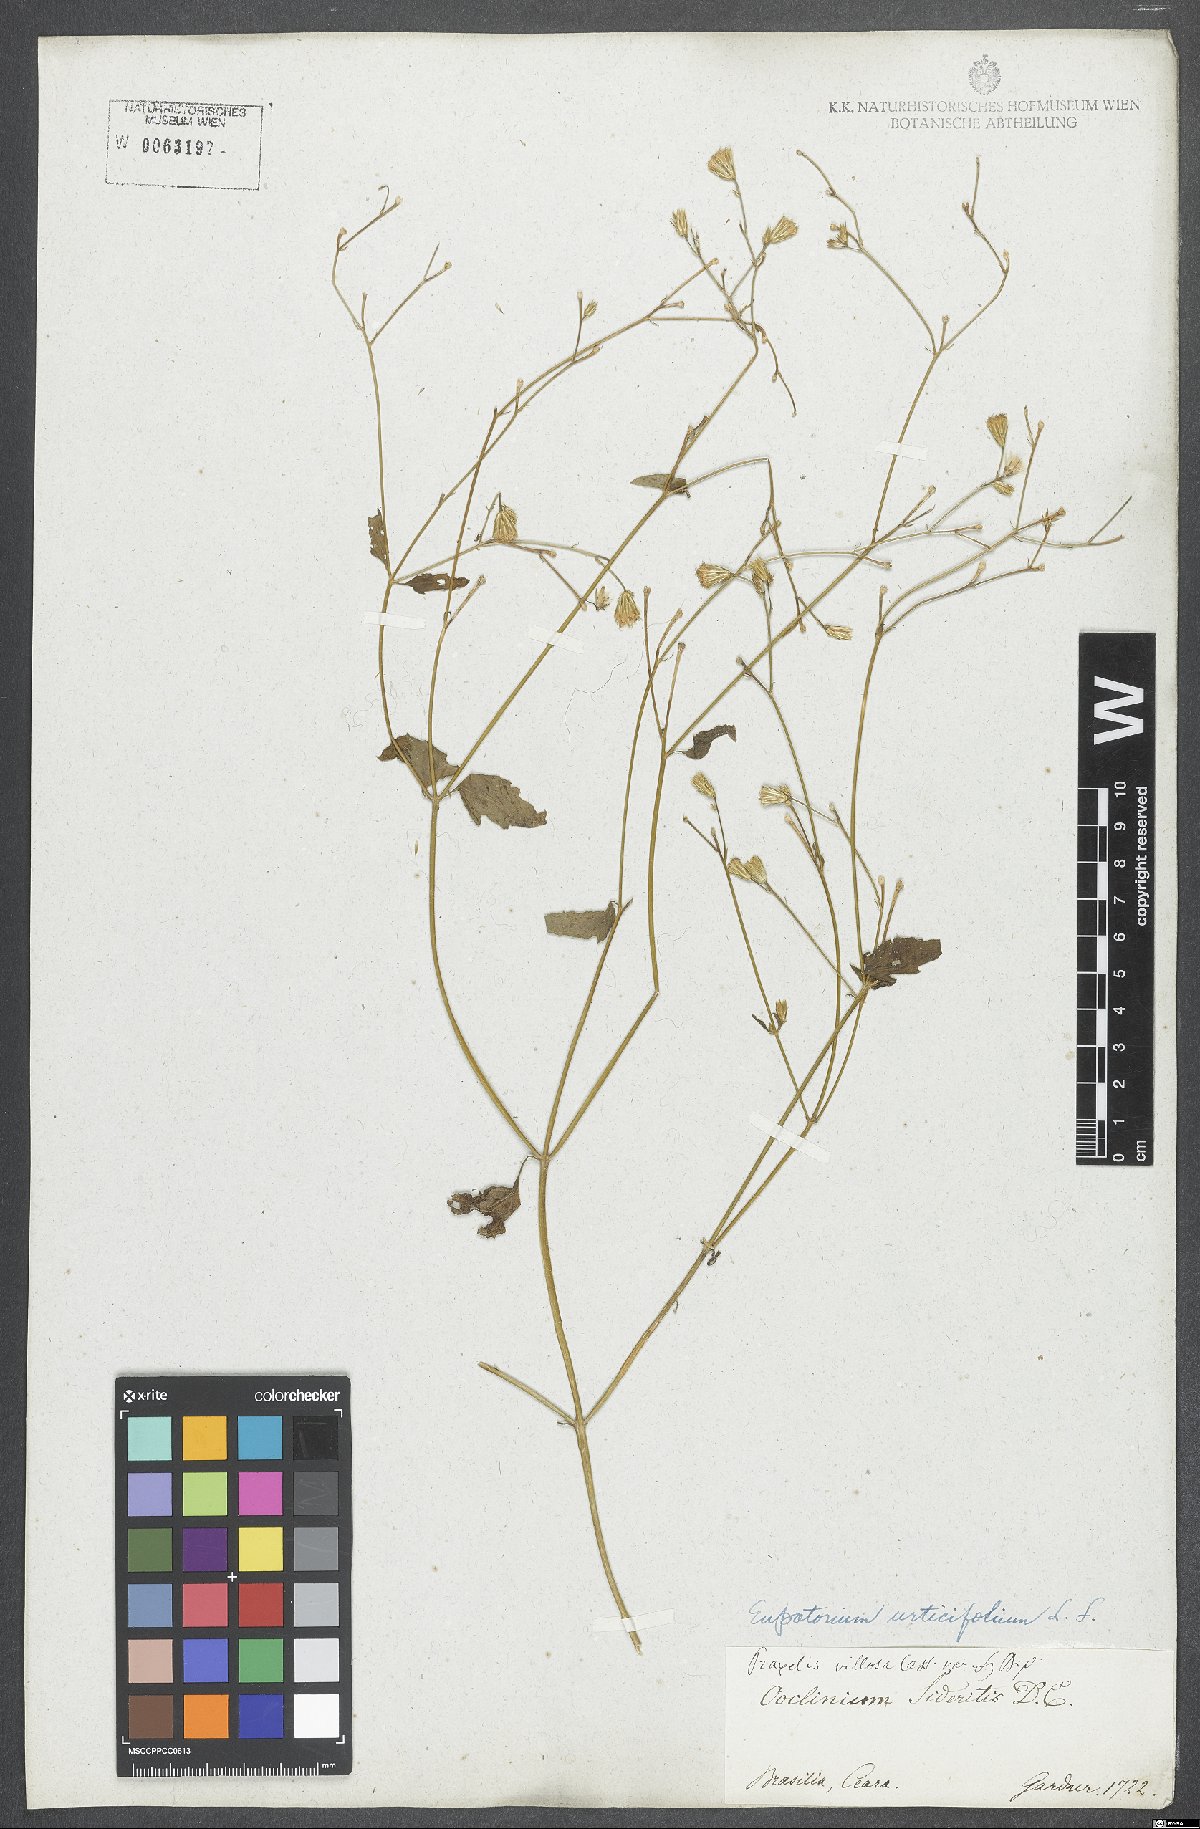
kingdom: Plantae
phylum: Tracheophyta
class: Magnoliopsida
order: Asterales
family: Asteraceae
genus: Ageratina
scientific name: Ageratina altissima
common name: White snakeroot
